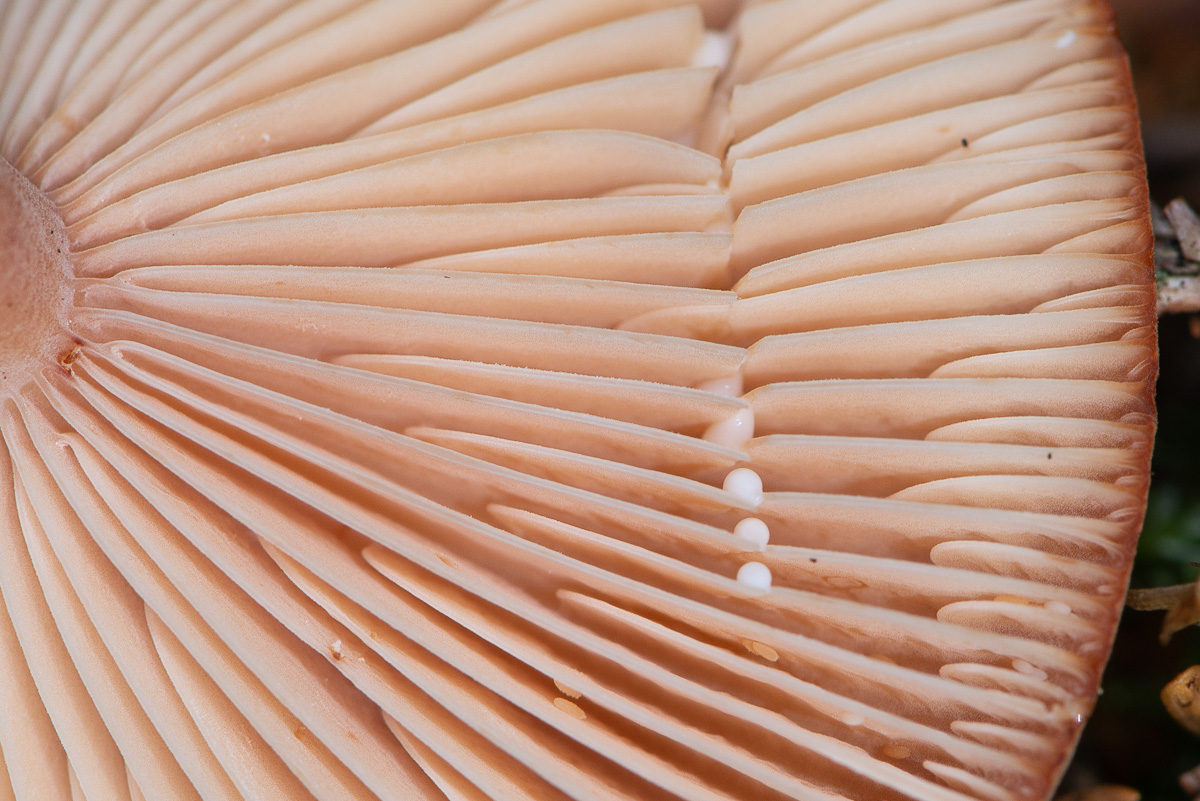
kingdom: Fungi
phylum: Basidiomycota
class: Agaricomycetes
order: Russulales
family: Russulaceae
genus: Lactarius
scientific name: Lactarius rufus
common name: rødbrun mælkehat
